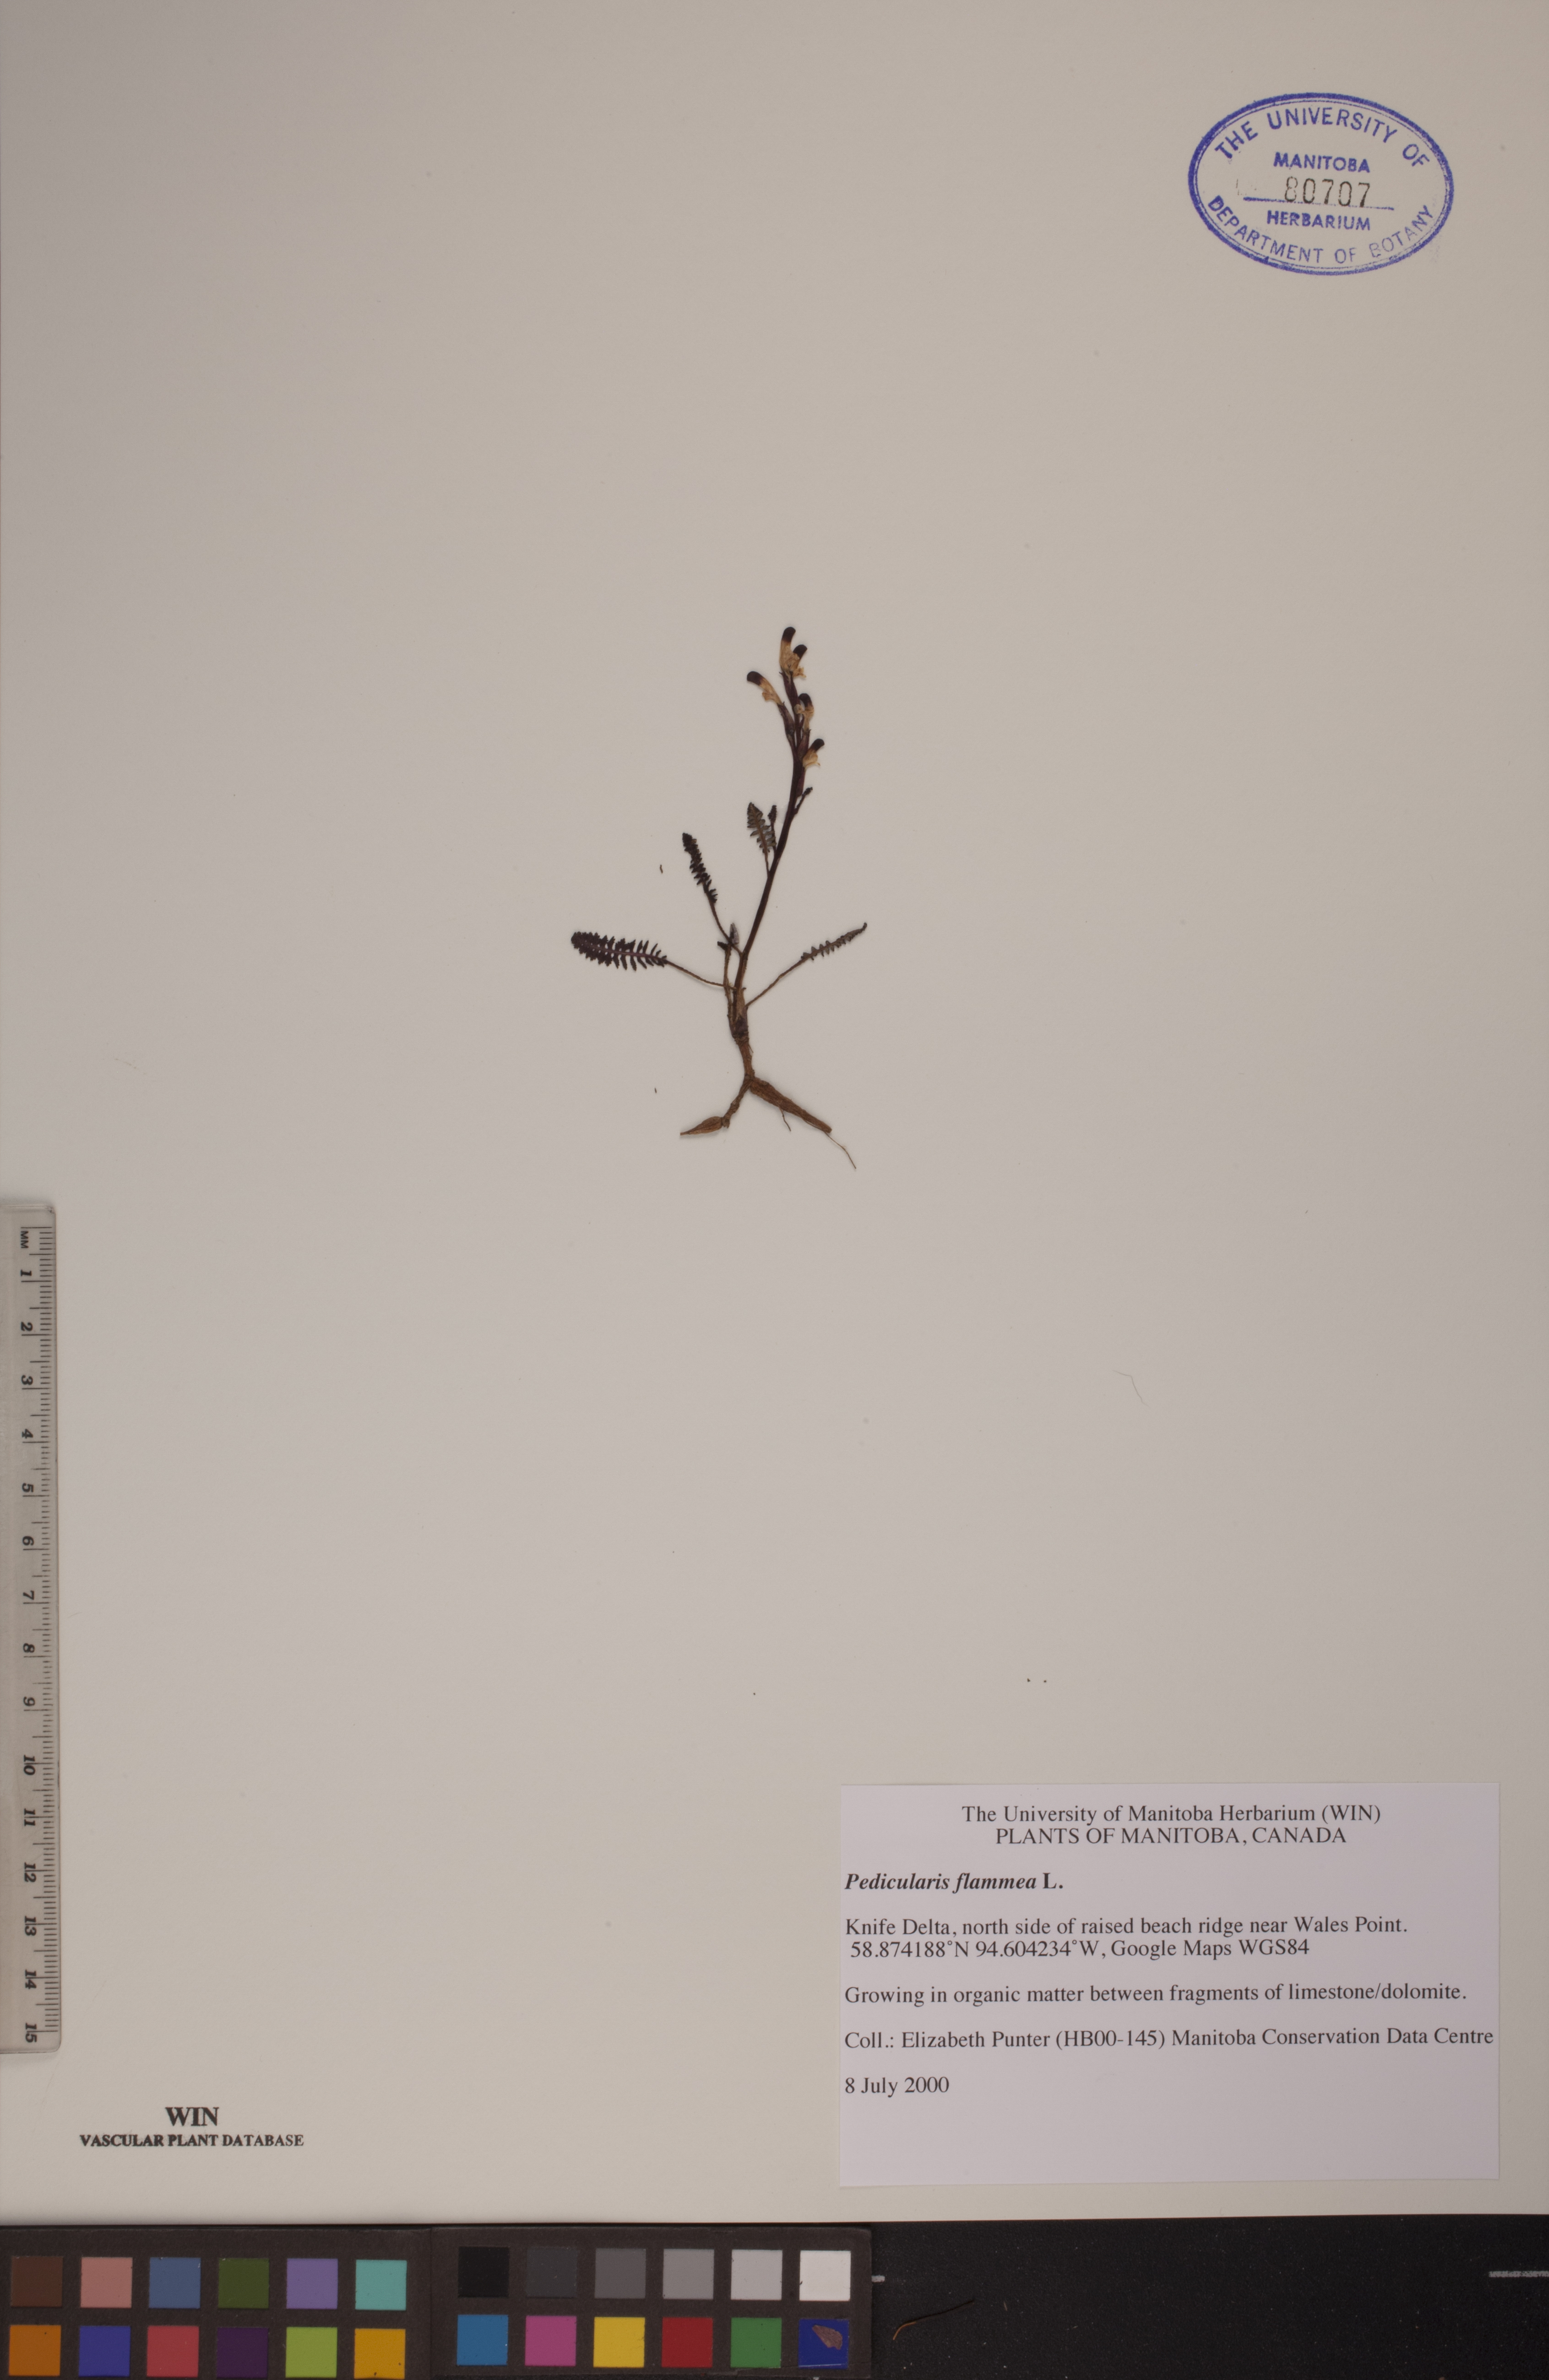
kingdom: Plantae
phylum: Tracheophyta
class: Magnoliopsida
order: Lamiales
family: Orobanchaceae
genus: Pedicularis
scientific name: Pedicularis flammea
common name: Flame-coloured lousewort
